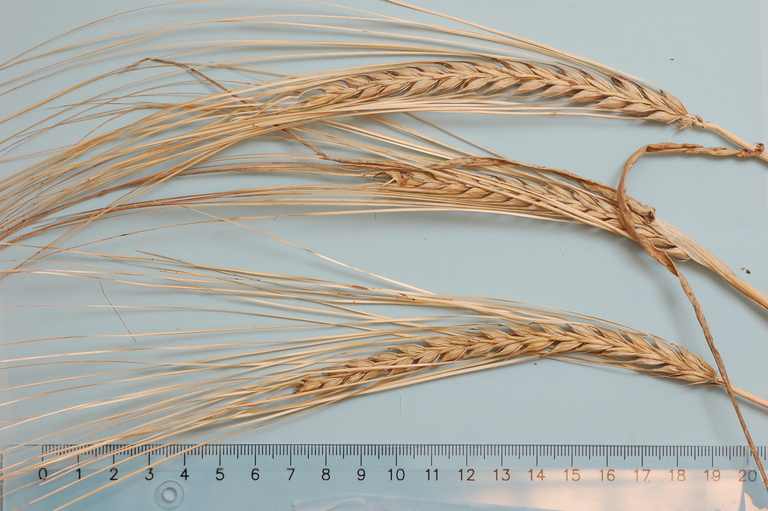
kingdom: Plantae
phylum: Tracheophyta
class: Liliopsida
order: Poales
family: Poaceae
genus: Hordeum
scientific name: Hordeum vulgare
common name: Common barley
